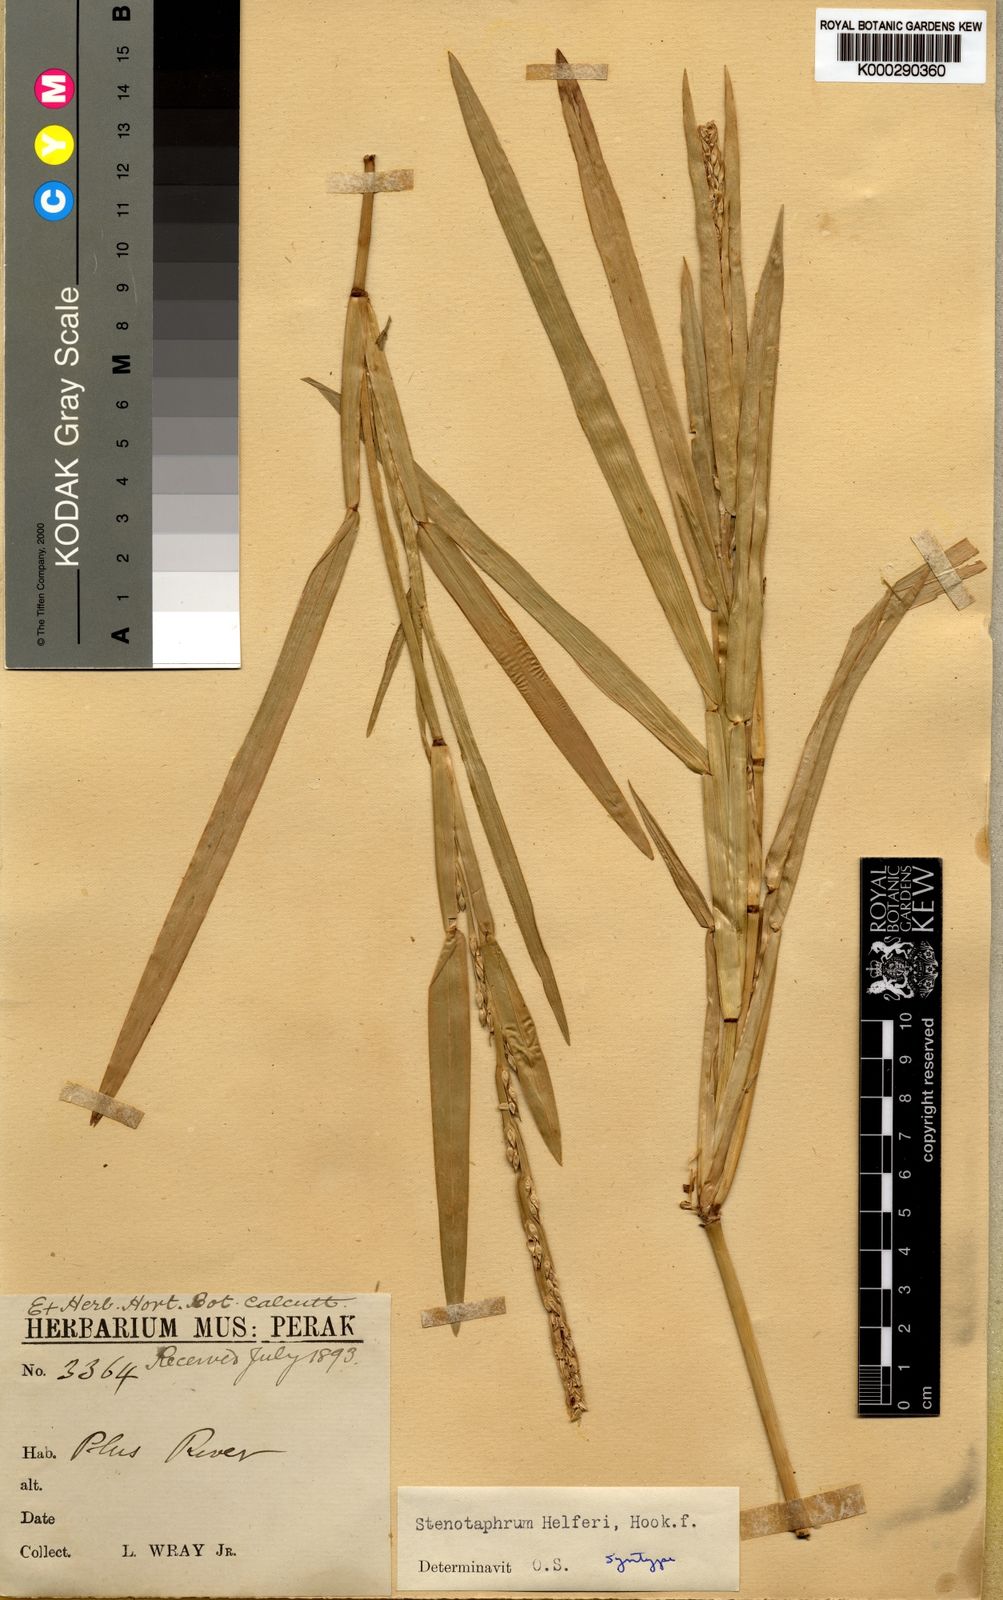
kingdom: Plantae
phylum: Tracheophyta
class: Liliopsida
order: Poales
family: Poaceae
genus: Stenotaphrum
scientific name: Stenotaphrum helferi
